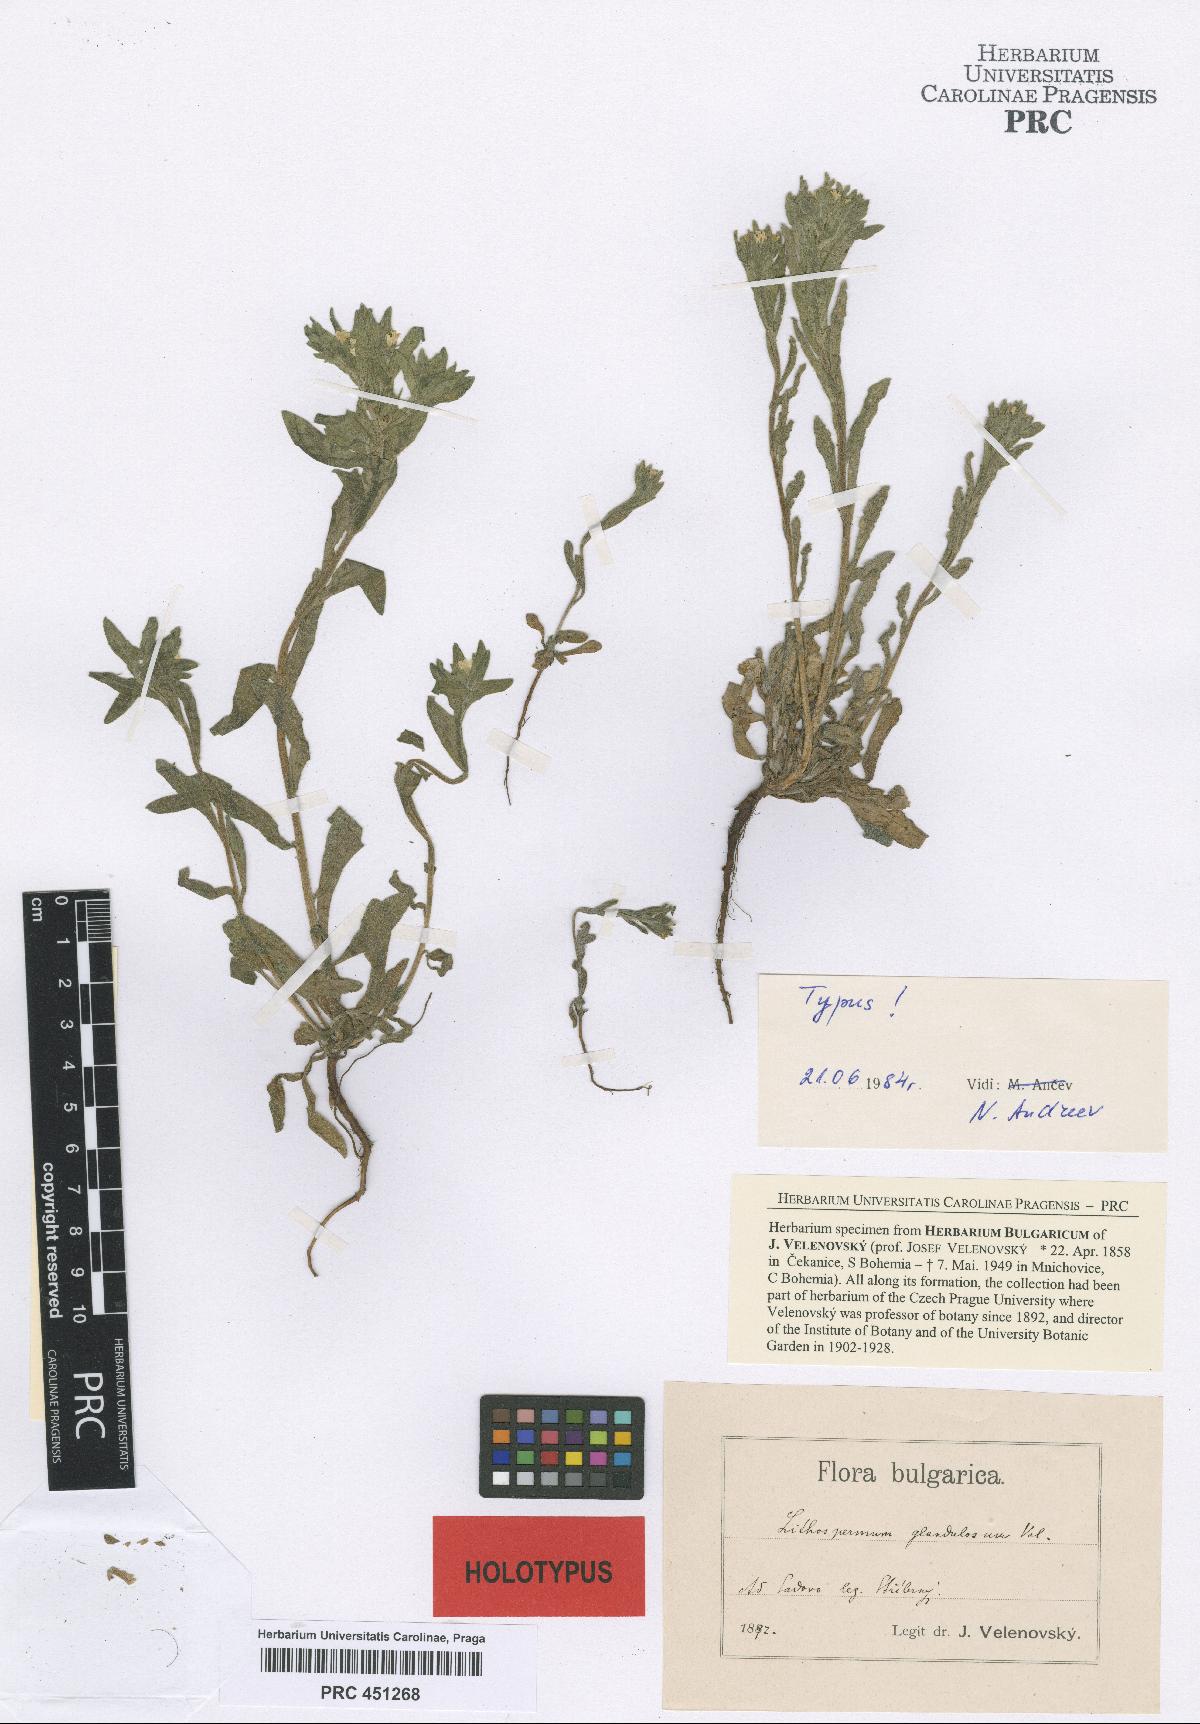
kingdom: Plantae
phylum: Tracheophyta
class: Magnoliopsida
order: Boraginales
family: Boraginaceae
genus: Buglossoides
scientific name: Buglossoides glandulosa
